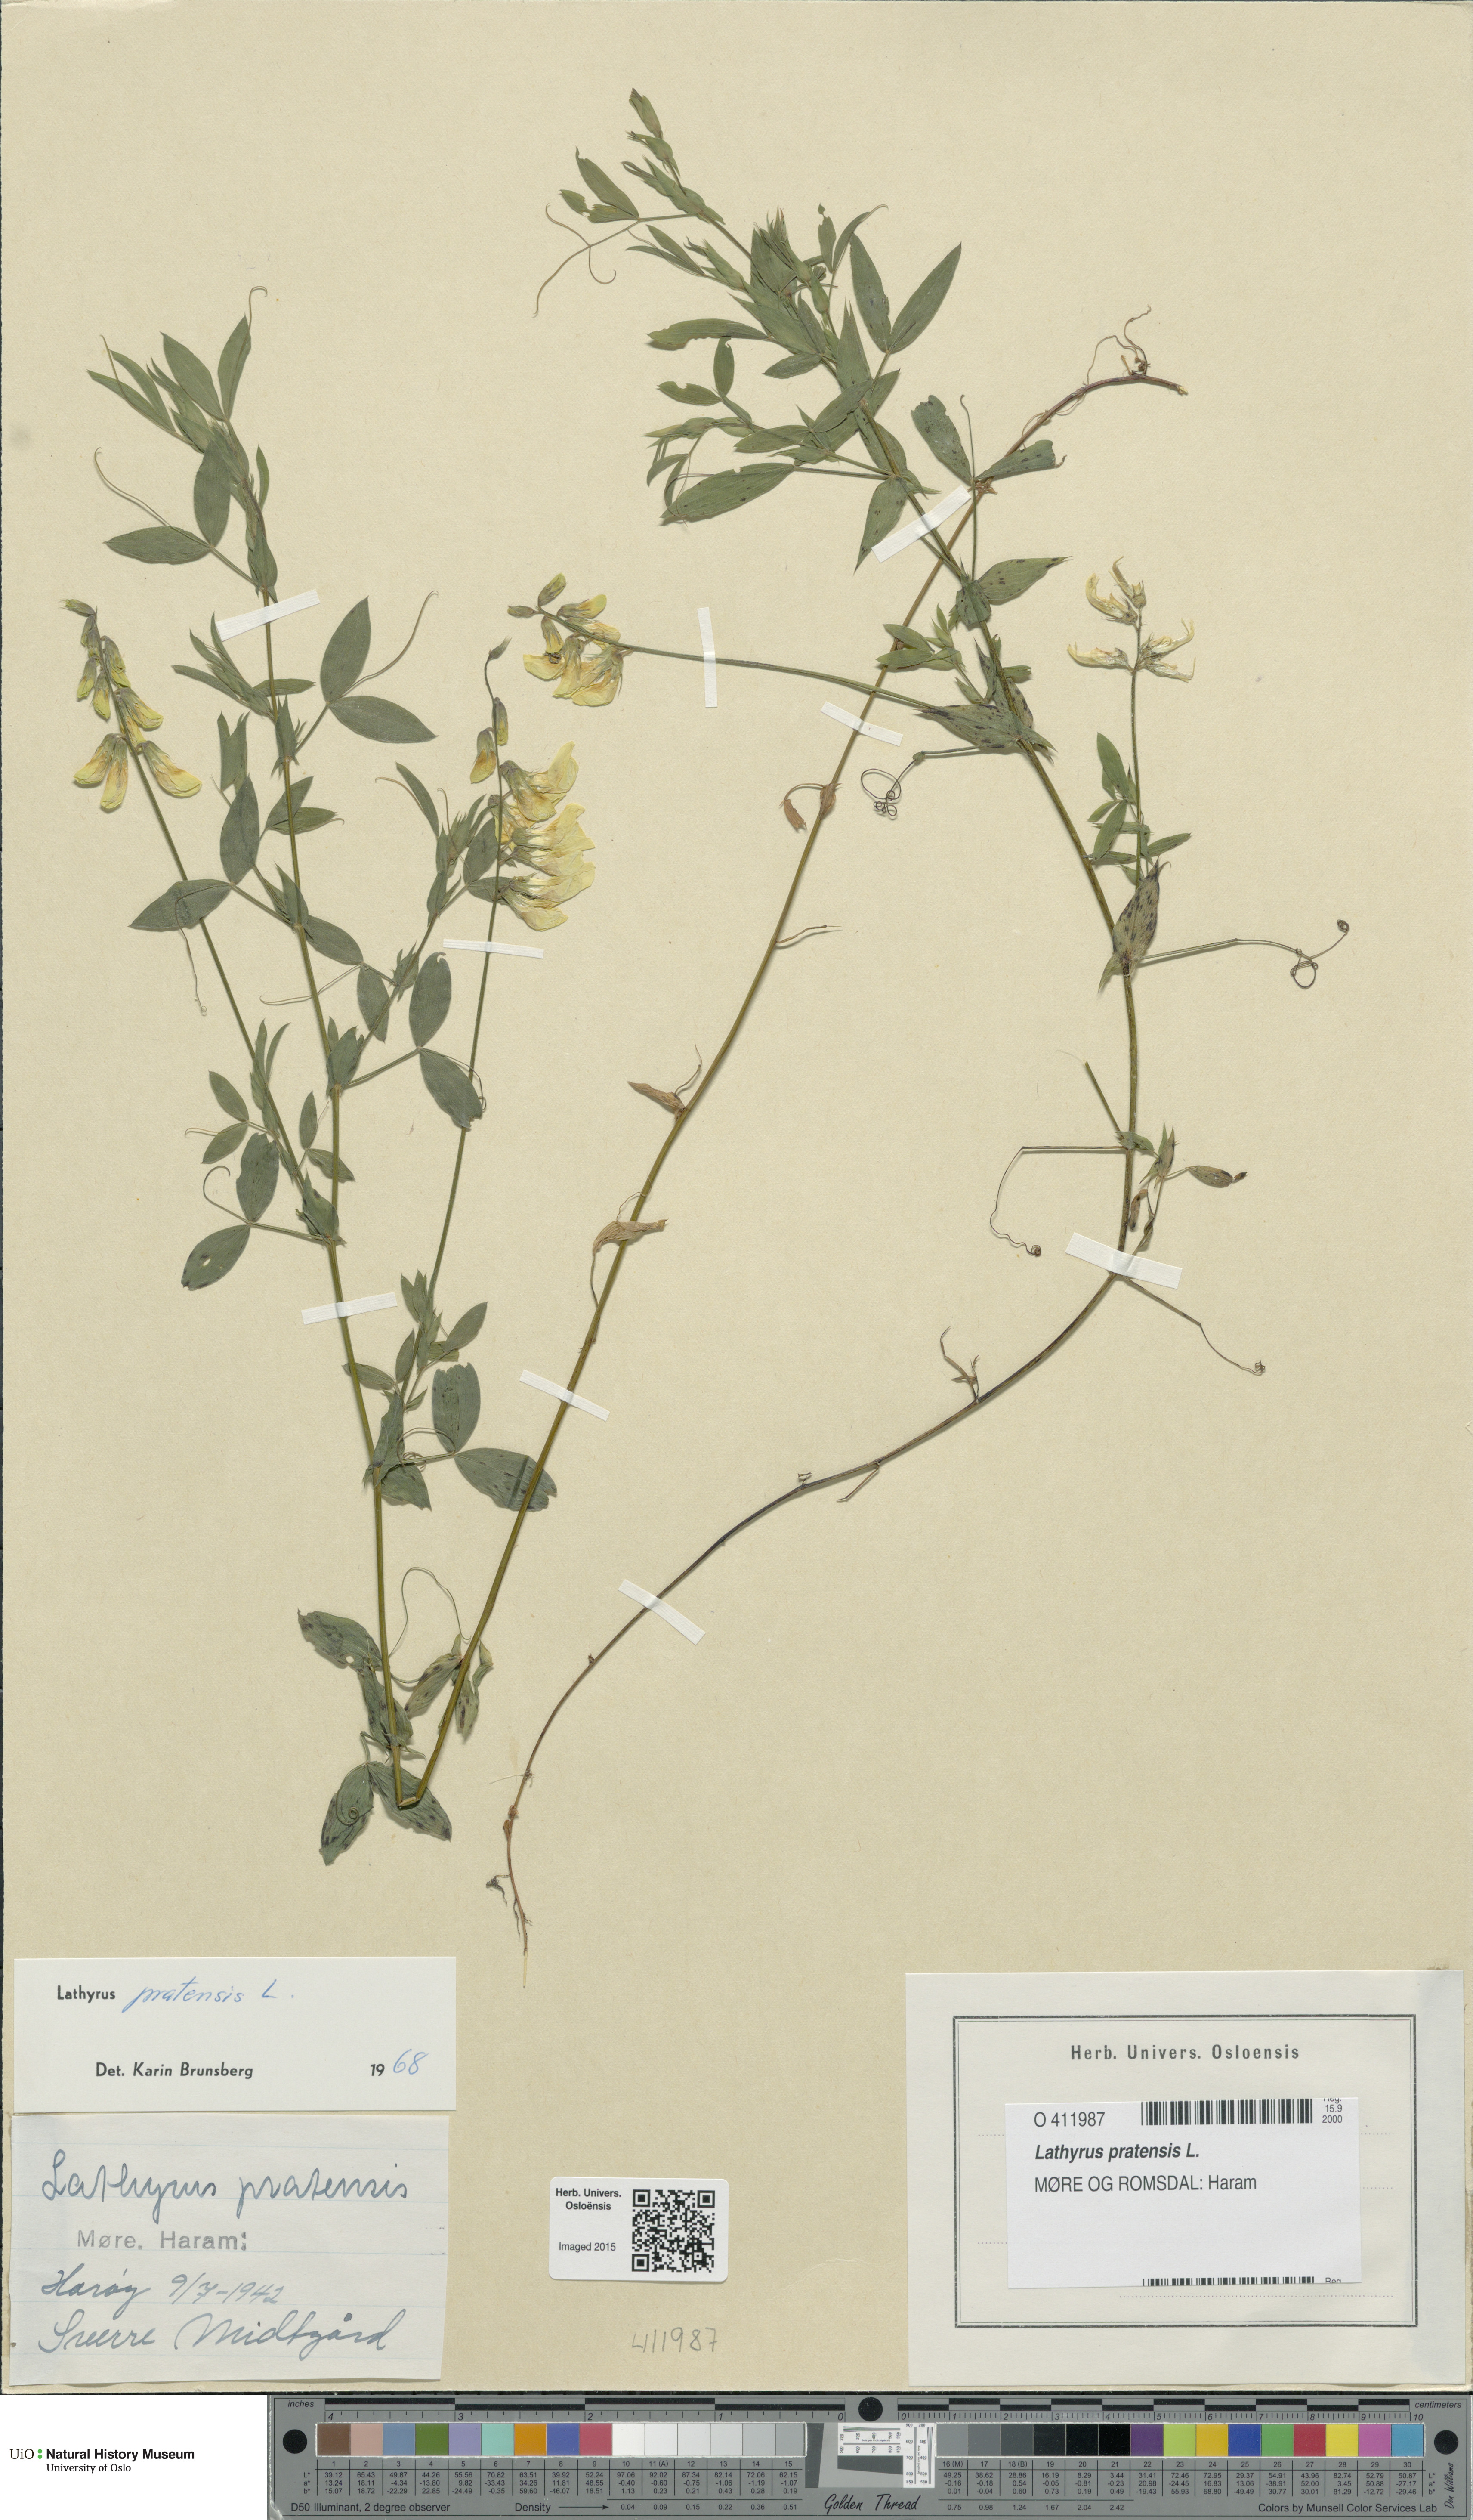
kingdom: Plantae
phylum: Tracheophyta
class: Magnoliopsida
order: Fabales
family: Fabaceae
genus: Lathyrus
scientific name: Lathyrus pratensis
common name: Meadow vetchling
